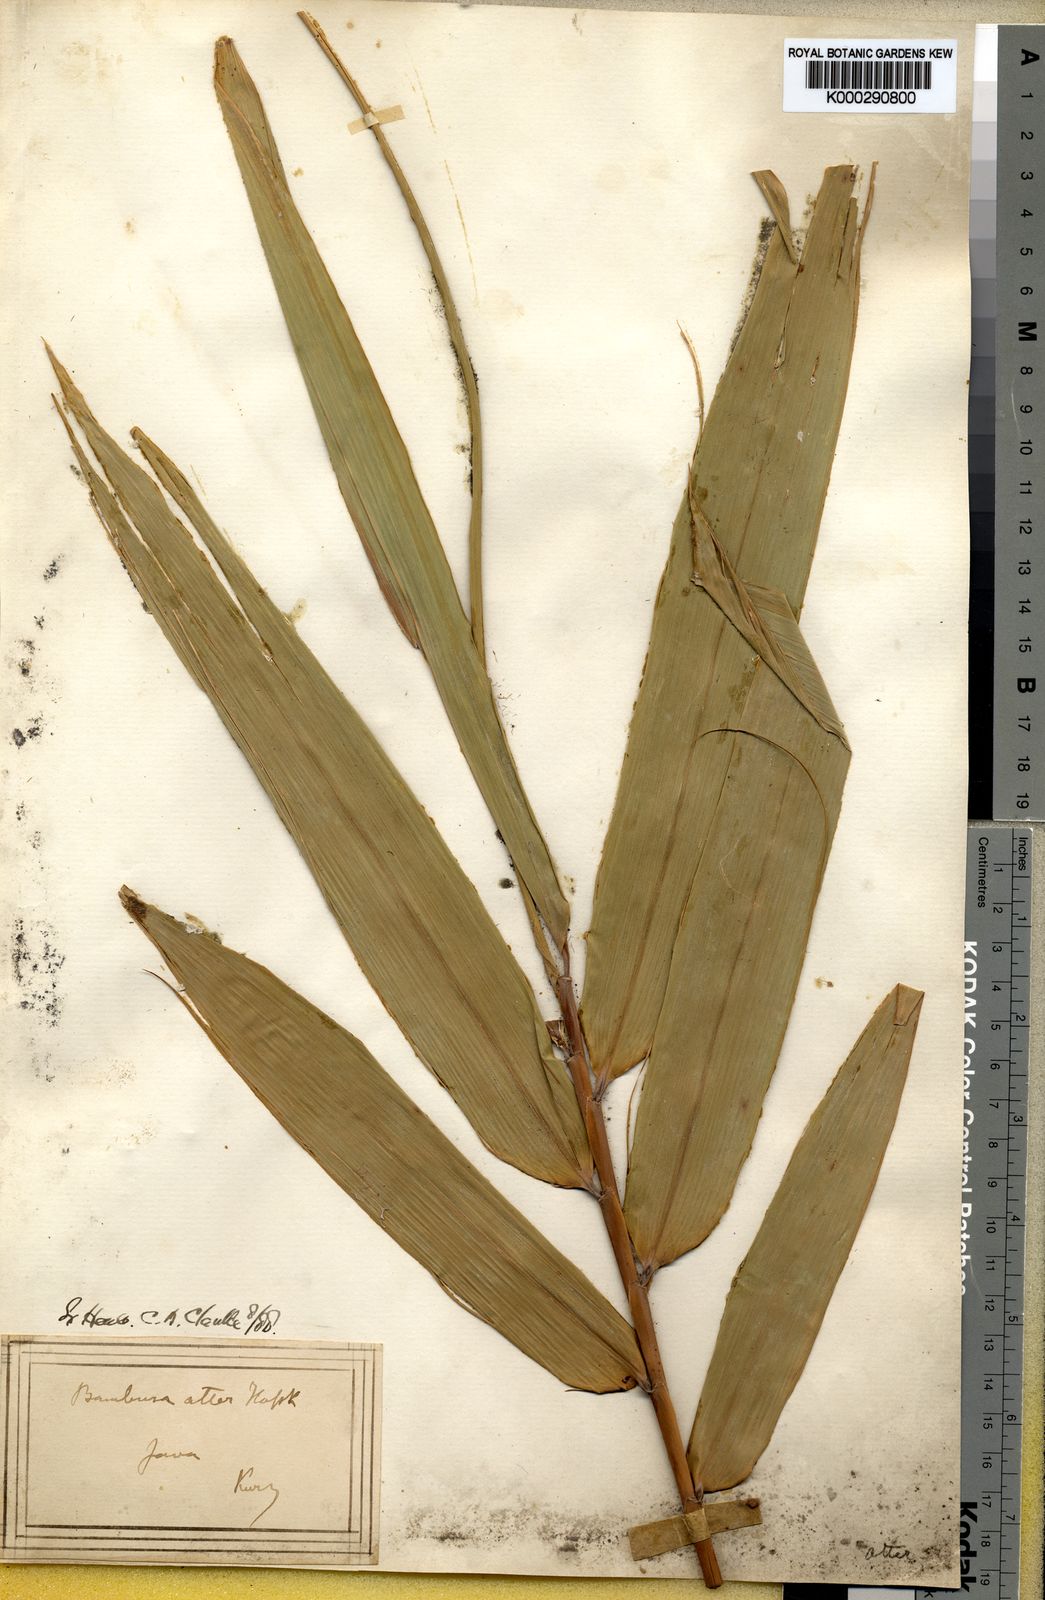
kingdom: Plantae
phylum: Tracheophyta
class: Liliopsida
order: Poales
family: Poaceae
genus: Gigantochloa
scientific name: Gigantochloa atter
